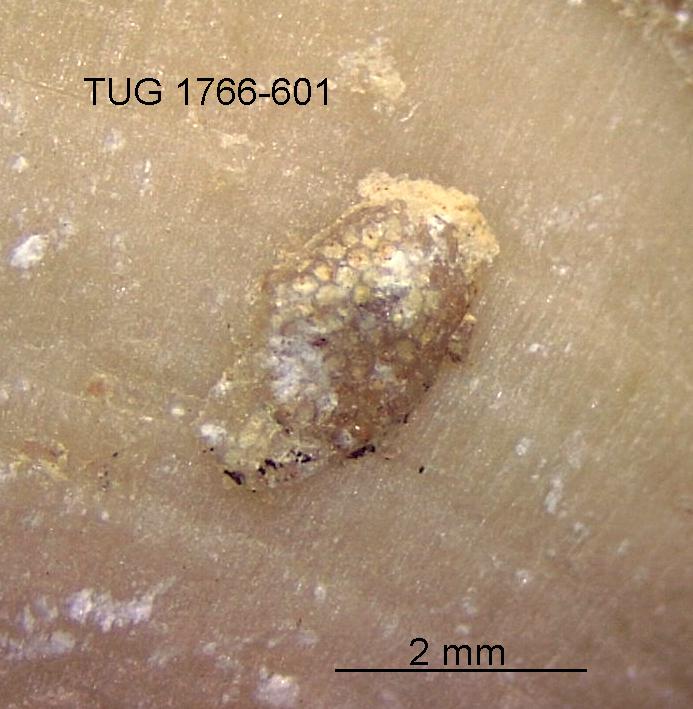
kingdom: Animalia
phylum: Bryozoa
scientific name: Bryozoa
